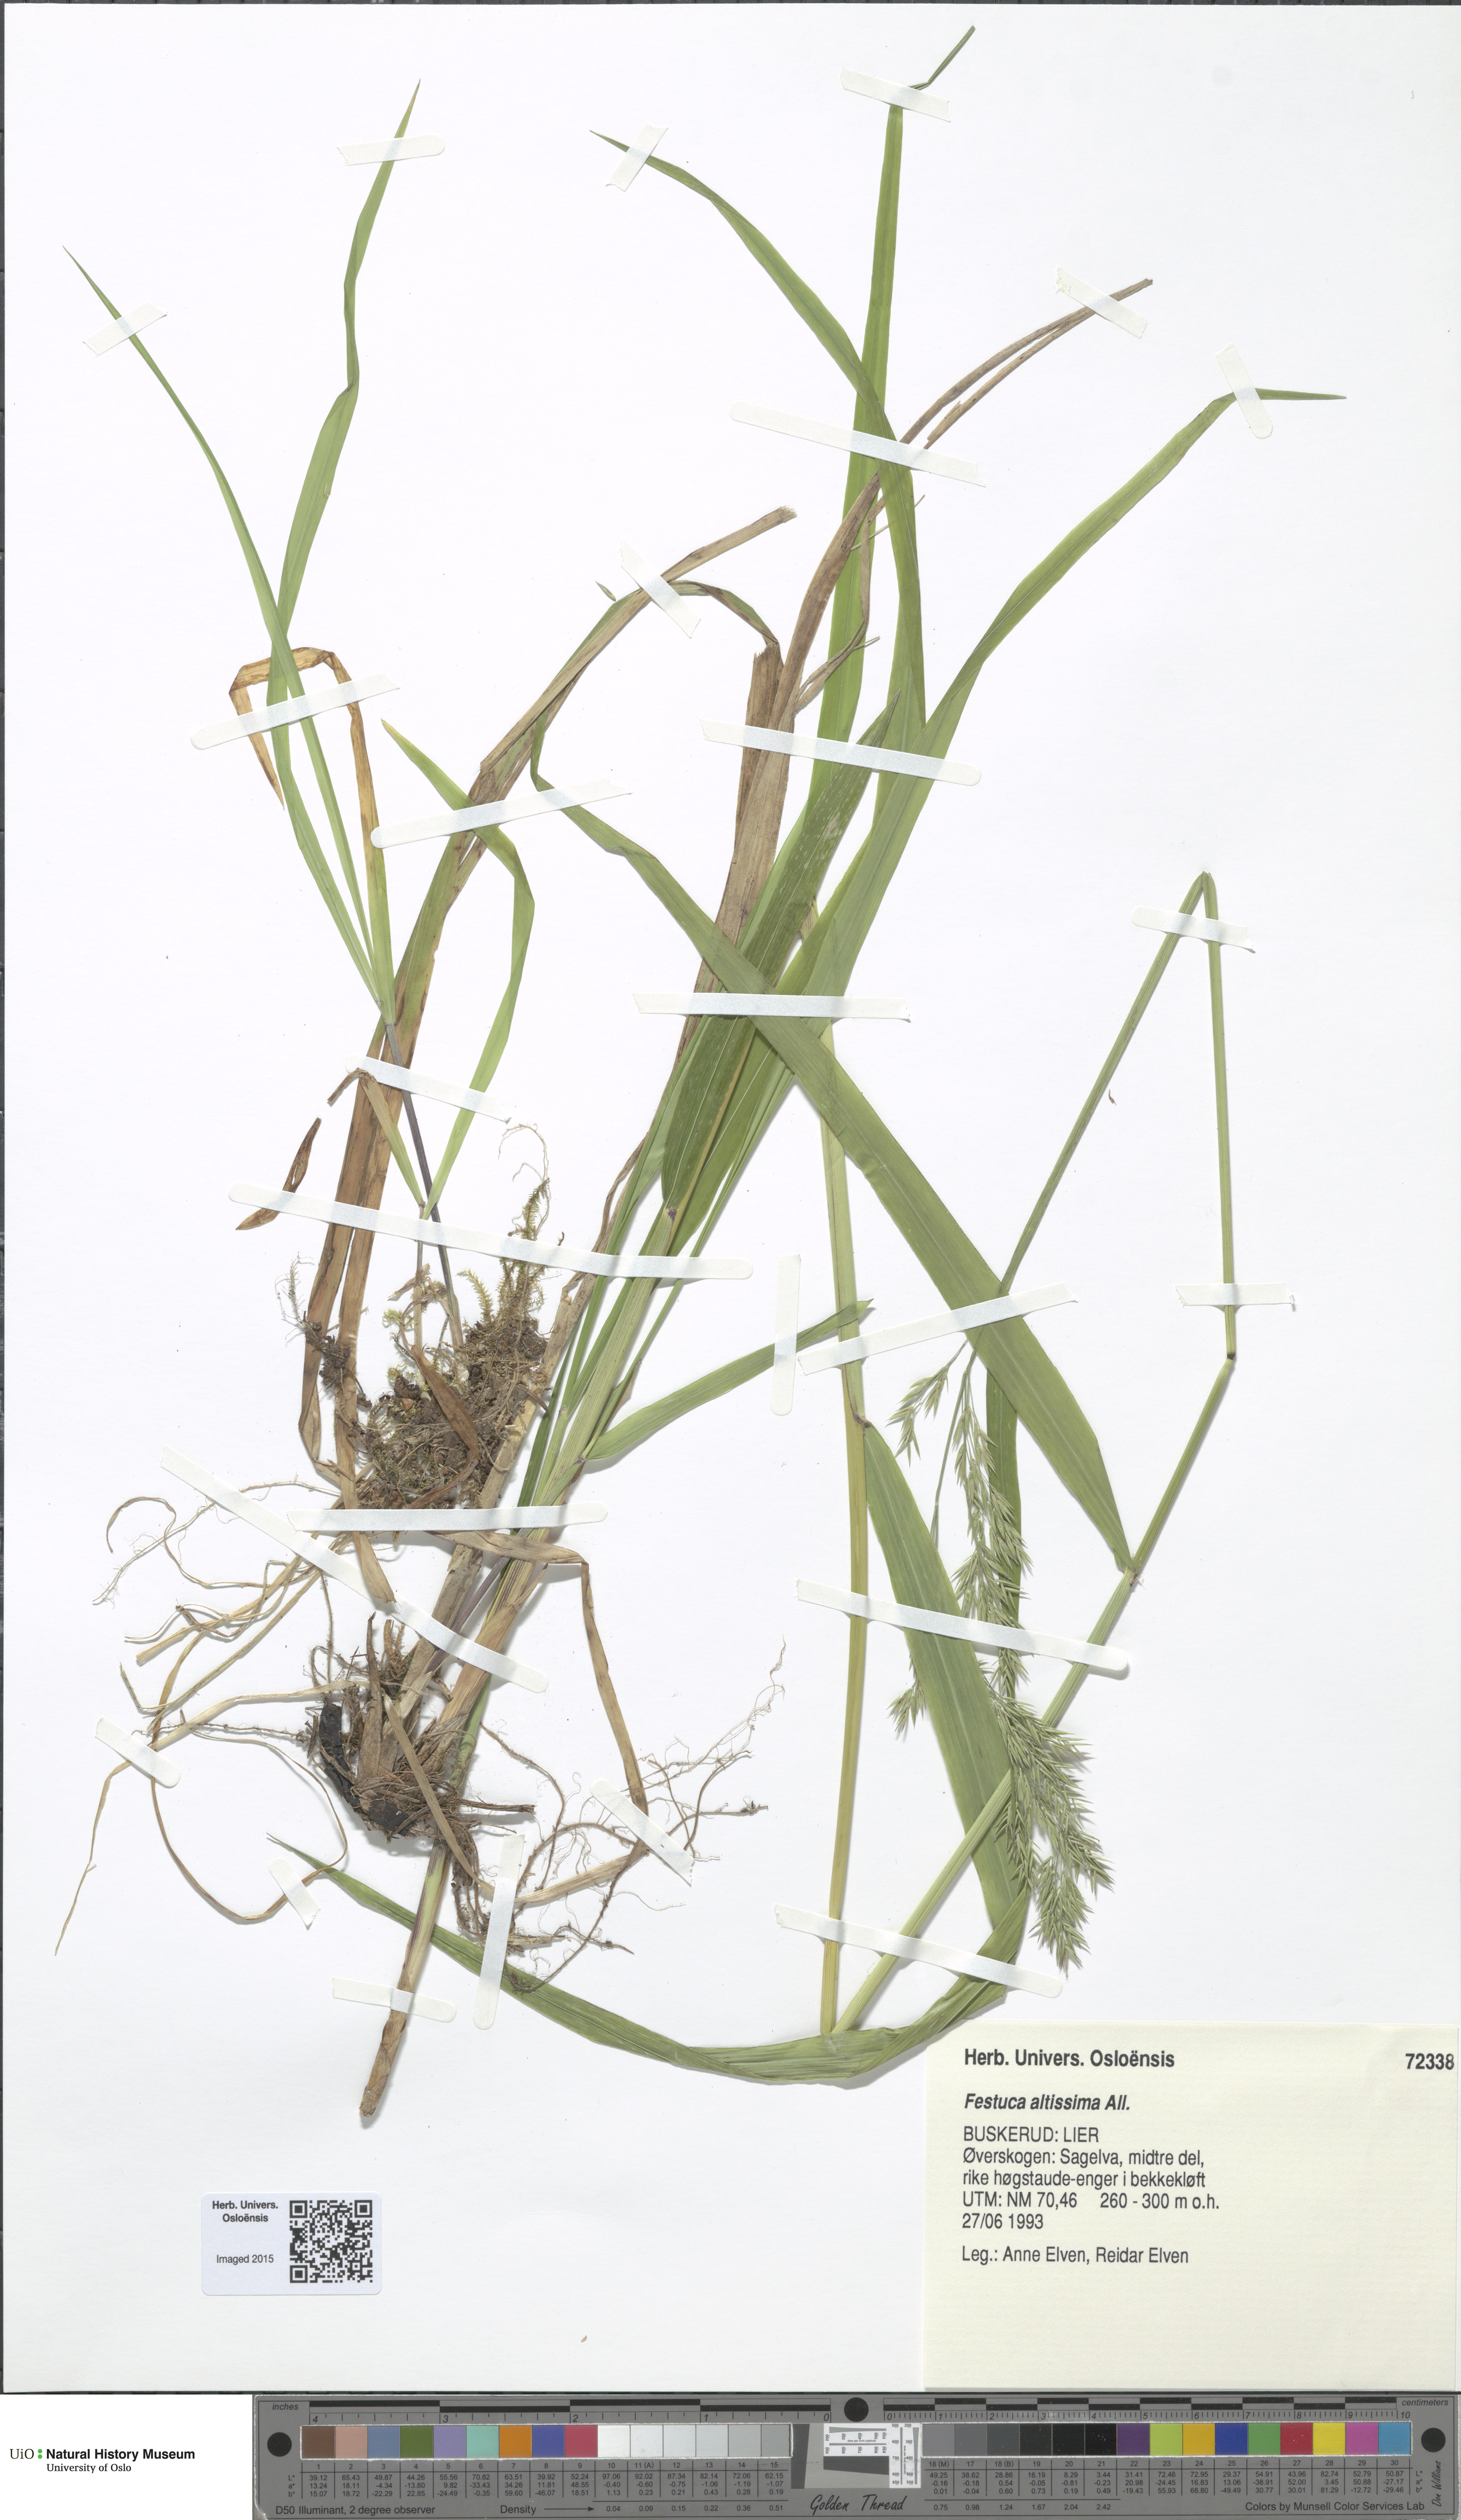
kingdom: Plantae
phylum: Tracheophyta
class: Liliopsida
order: Poales
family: Poaceae
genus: Festuca
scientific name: Festuca altissima
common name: Wood fescue
